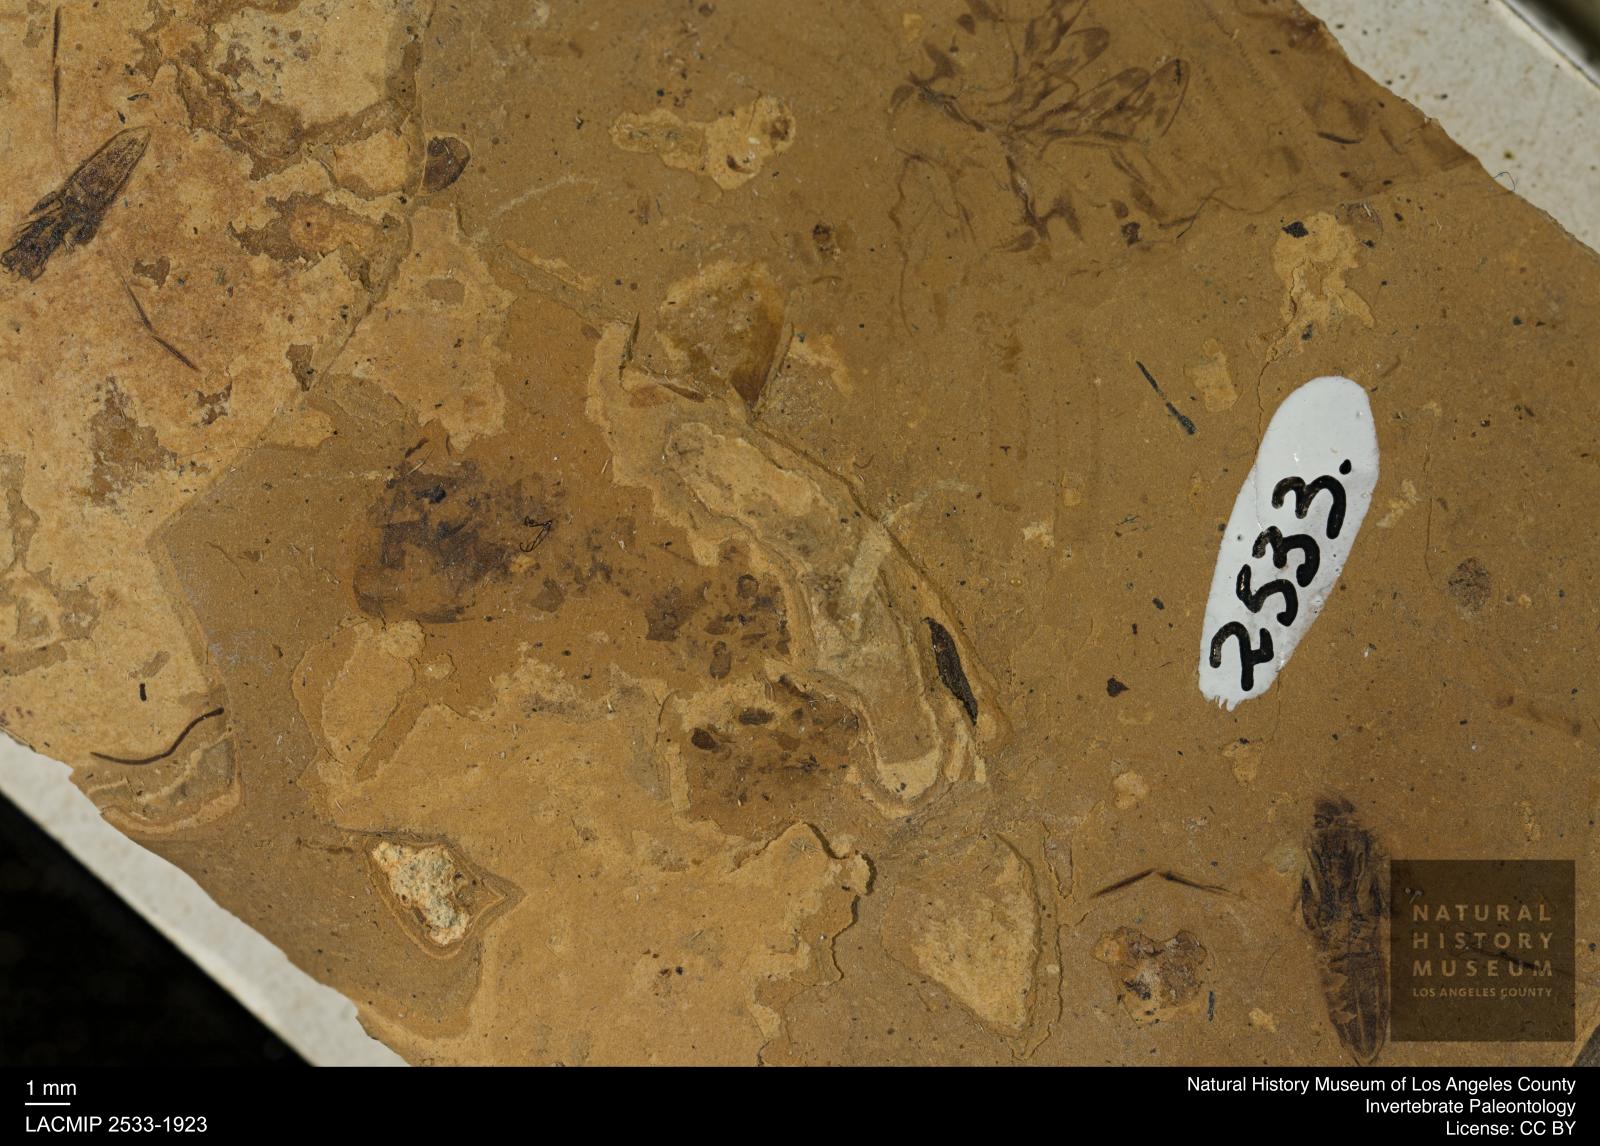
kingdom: Animalia
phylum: Arthropoda
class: Insecta
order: Hemiptera
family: Notonectidae
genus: Notonecta
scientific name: Notonecta
